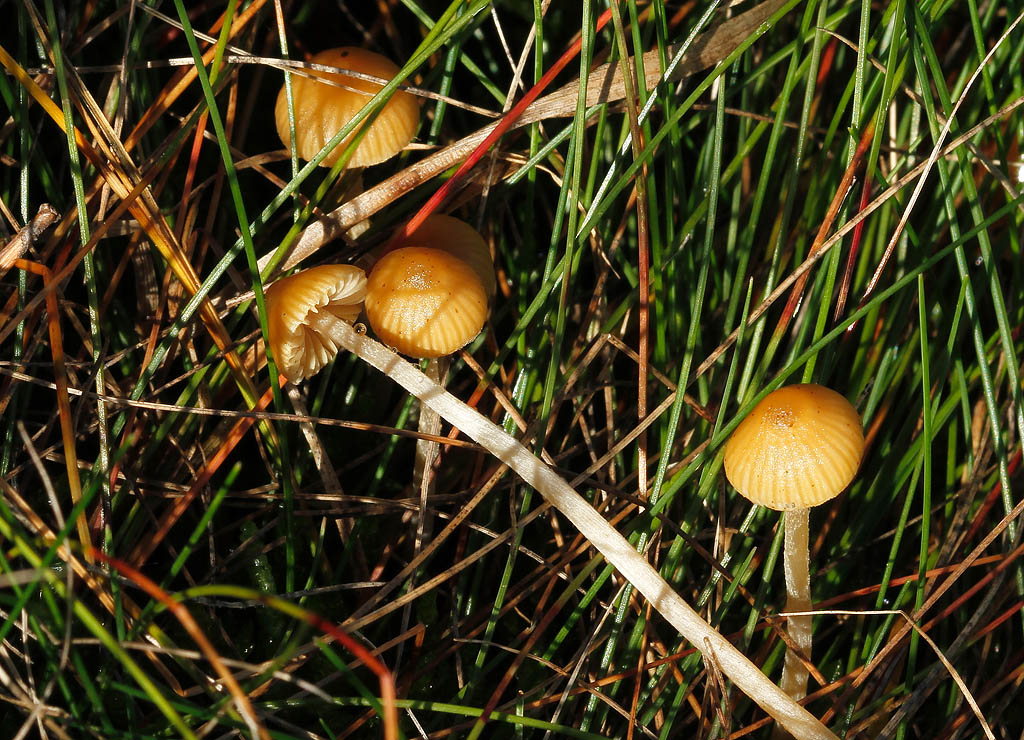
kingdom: Fungi
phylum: Basidiomycota
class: Agaricomycetes
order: Agaricales
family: Hymenogastraceae
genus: Galerina
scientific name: Galerina clavata
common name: kær-hjelmhat
